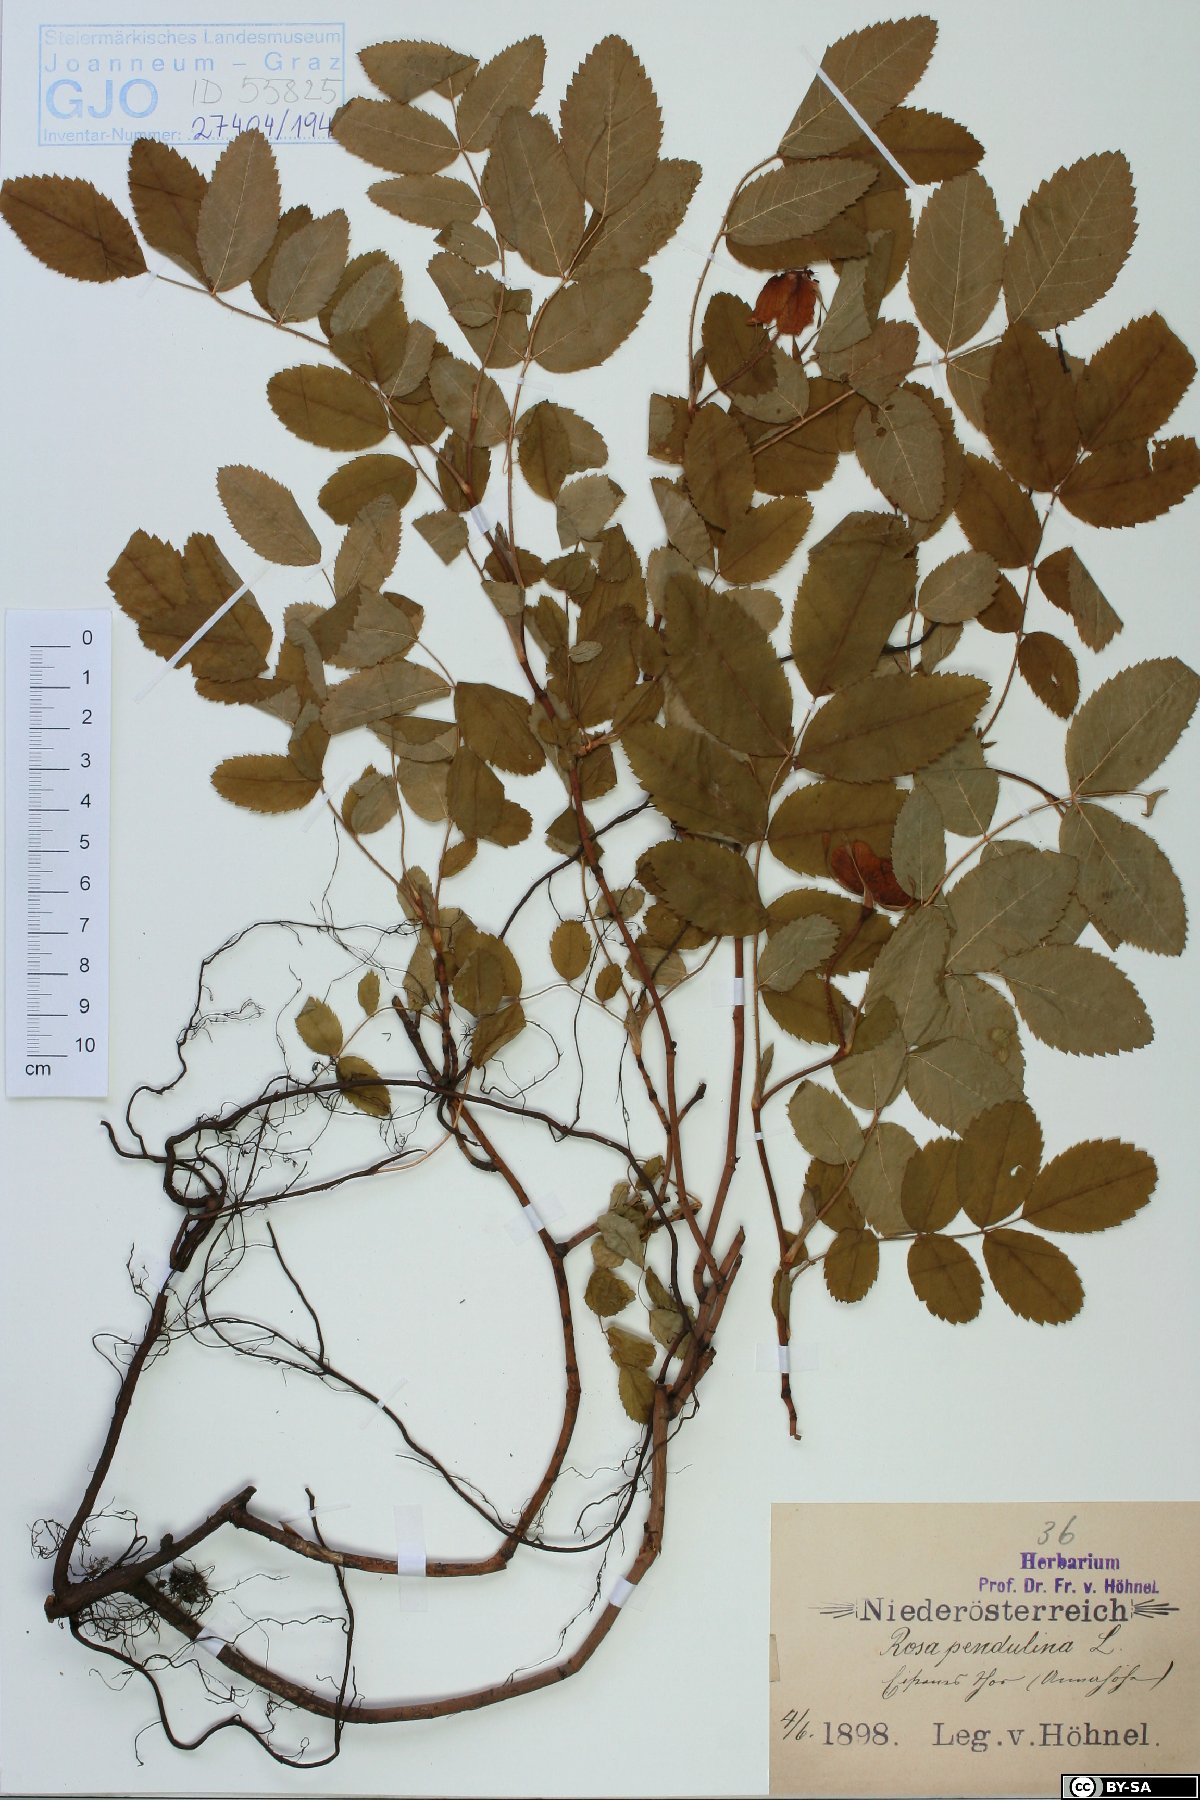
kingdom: Plantae
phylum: Tracheophyta
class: Magnoliopsida
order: Rosales
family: Rosaceae
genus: Rosa
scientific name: Rosa pendulina
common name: Alpine rose
